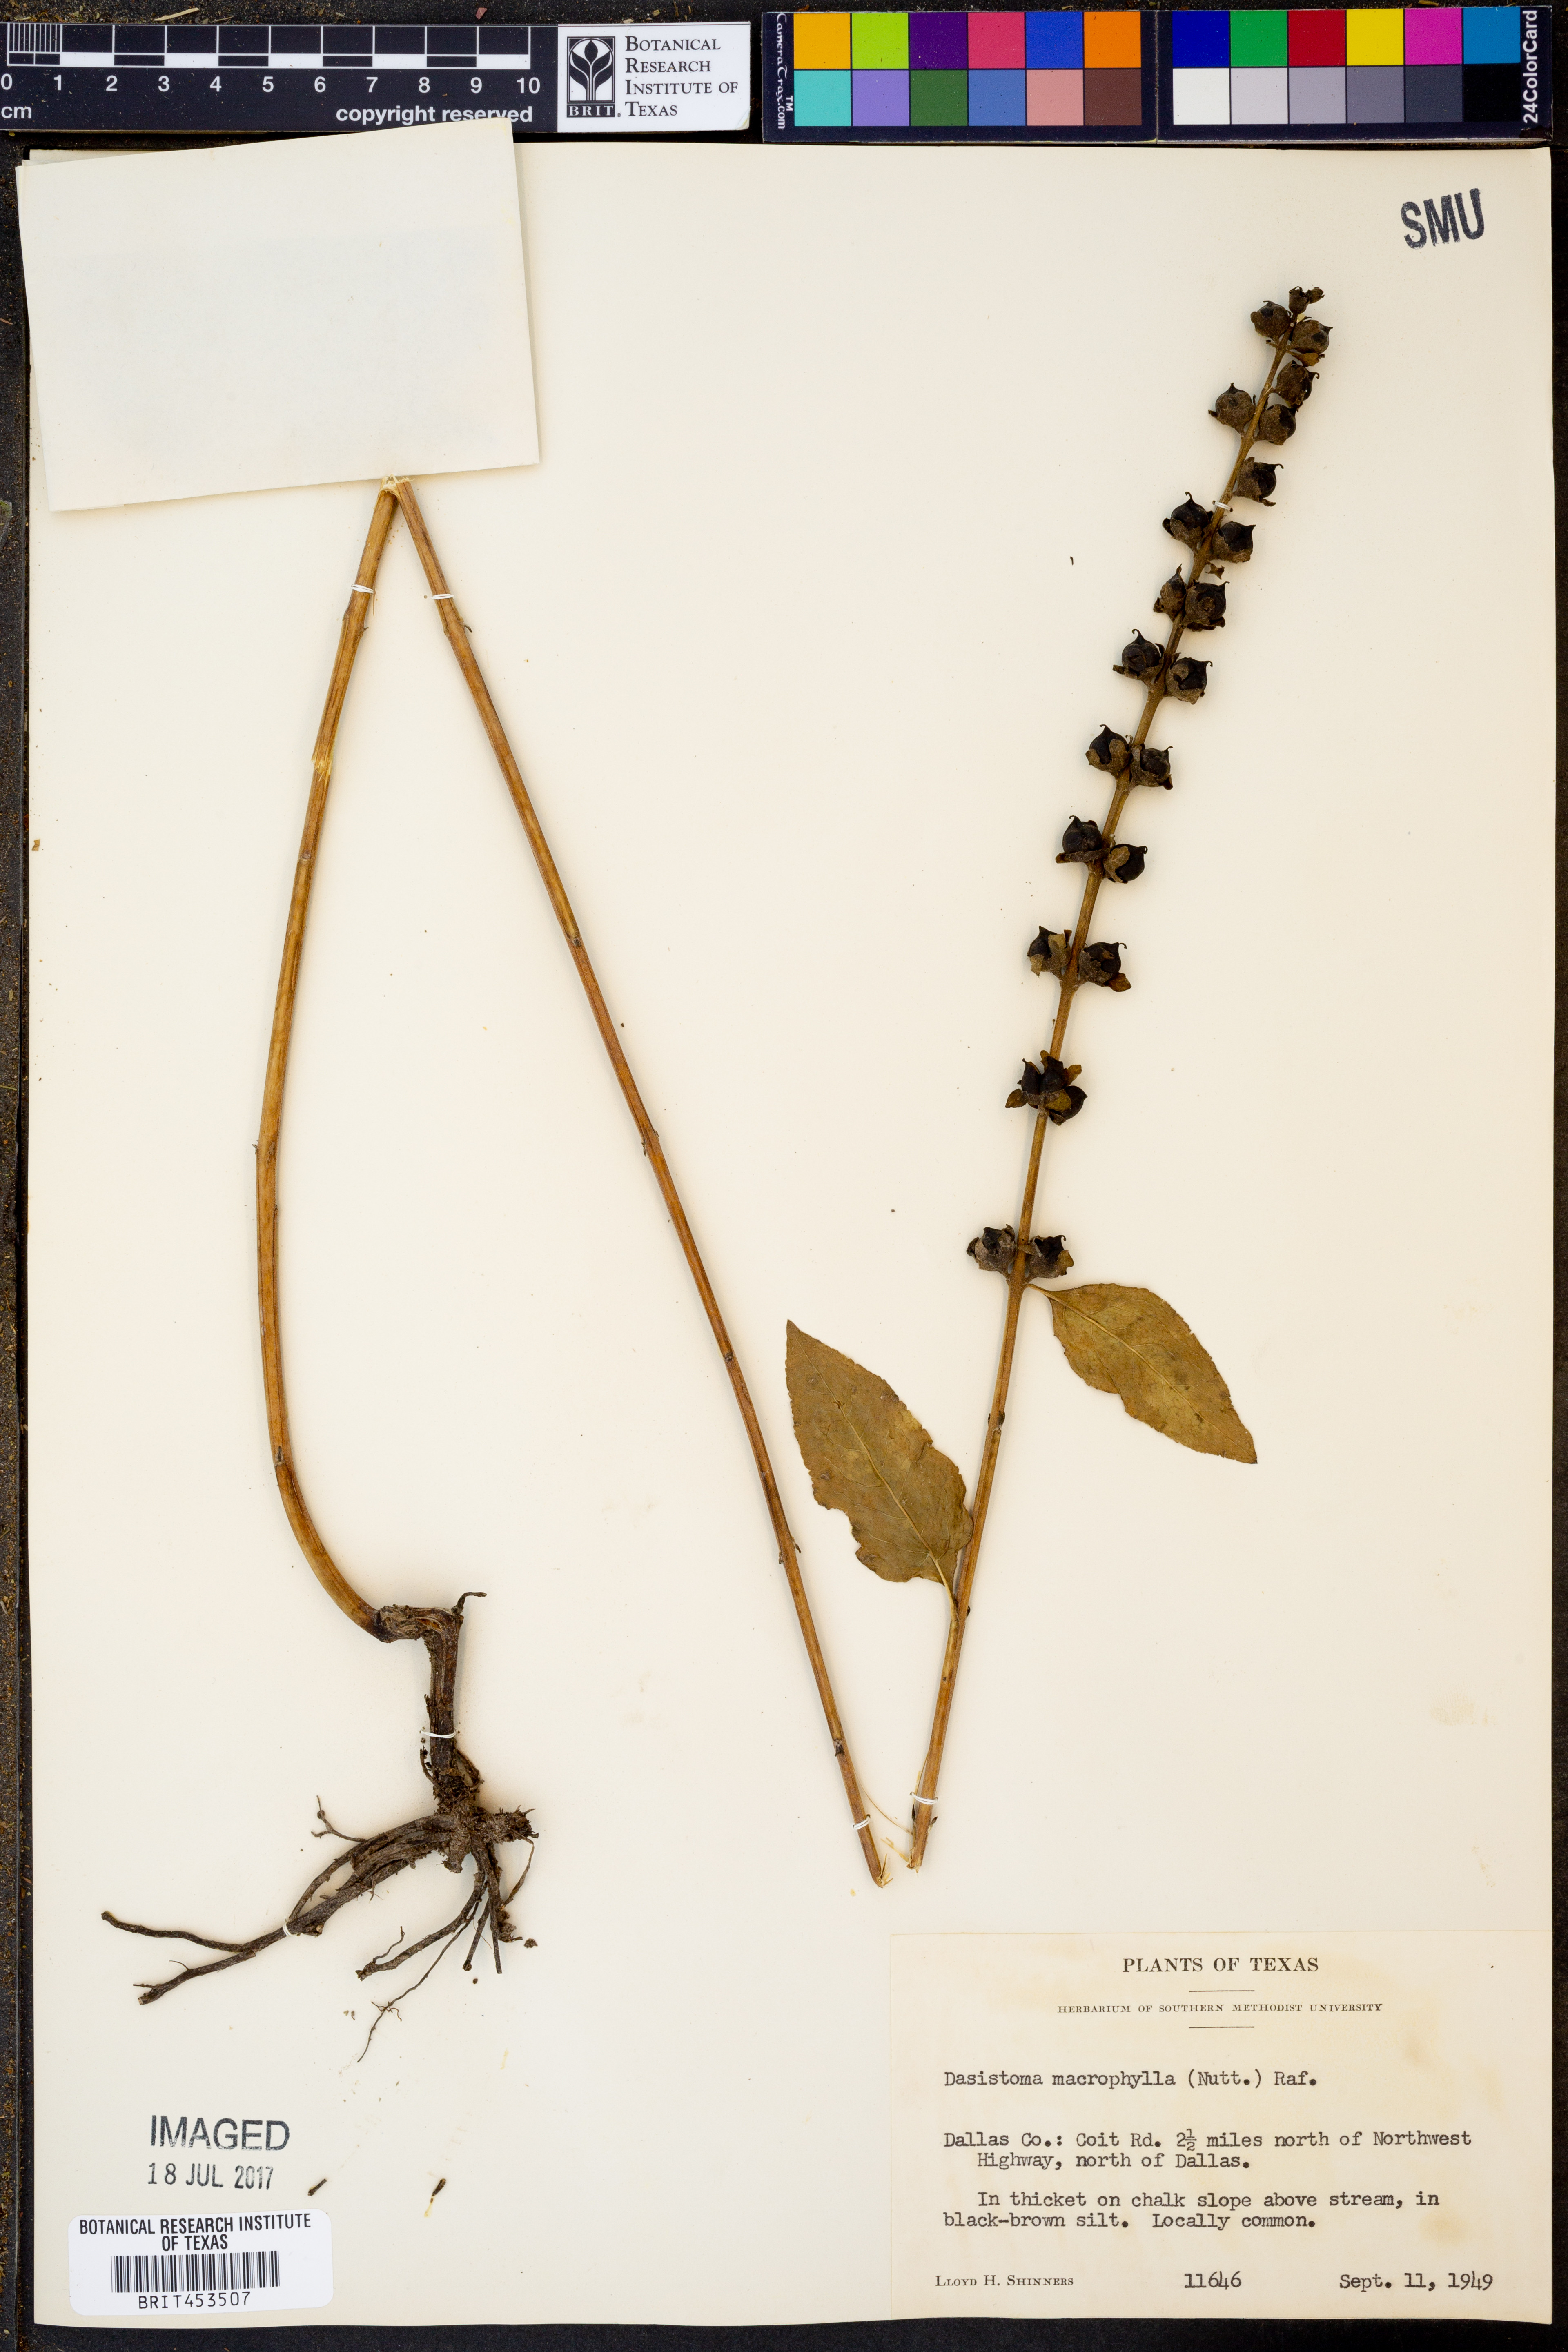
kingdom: Plantae
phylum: Tracheophyta
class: Magnoliopsida
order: Lamiales
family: Orobanchaceae
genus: Dasistoma
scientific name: Dasistoma macrophyllum
